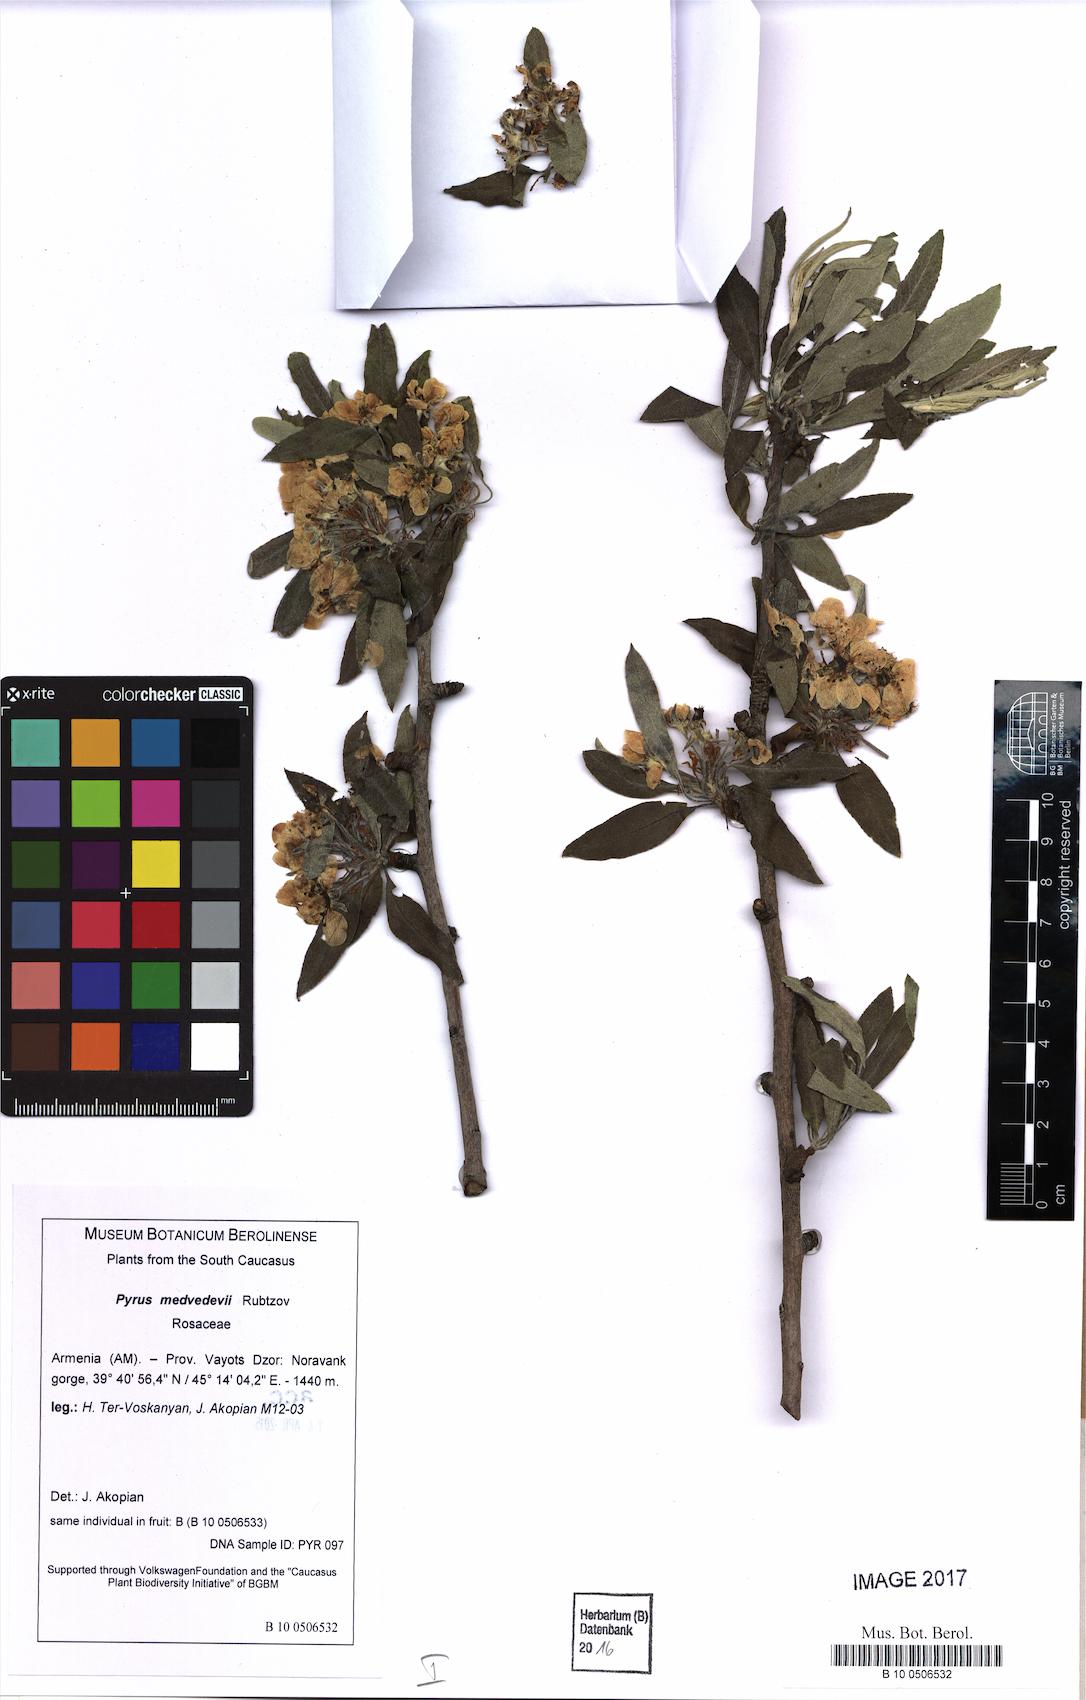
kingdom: Plantae
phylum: Tracheophyta
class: Magnoliopsida
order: Rosales
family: Rosaceae
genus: Pyrus
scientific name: Pyrus medvedevii
